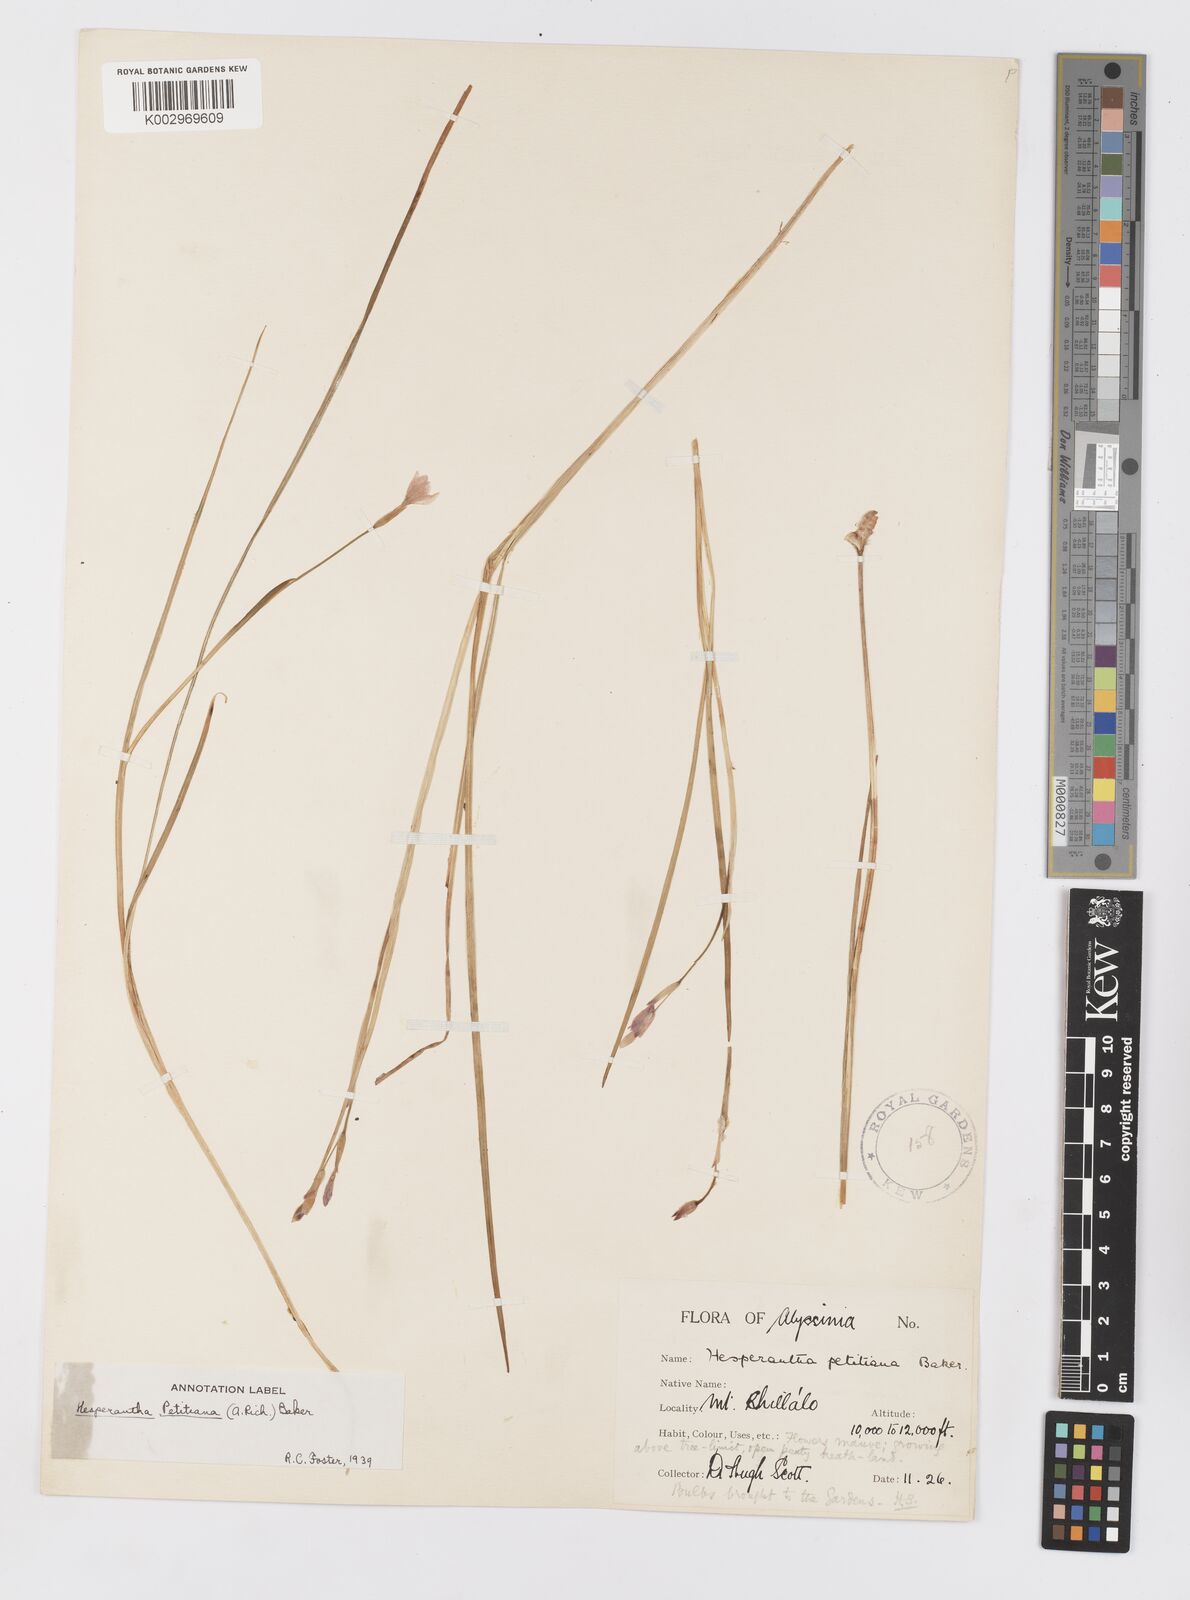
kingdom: Plantae
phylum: Tracheophyta
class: Liliopsida
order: Asparagales
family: Iridaceae
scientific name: Iridaceae
